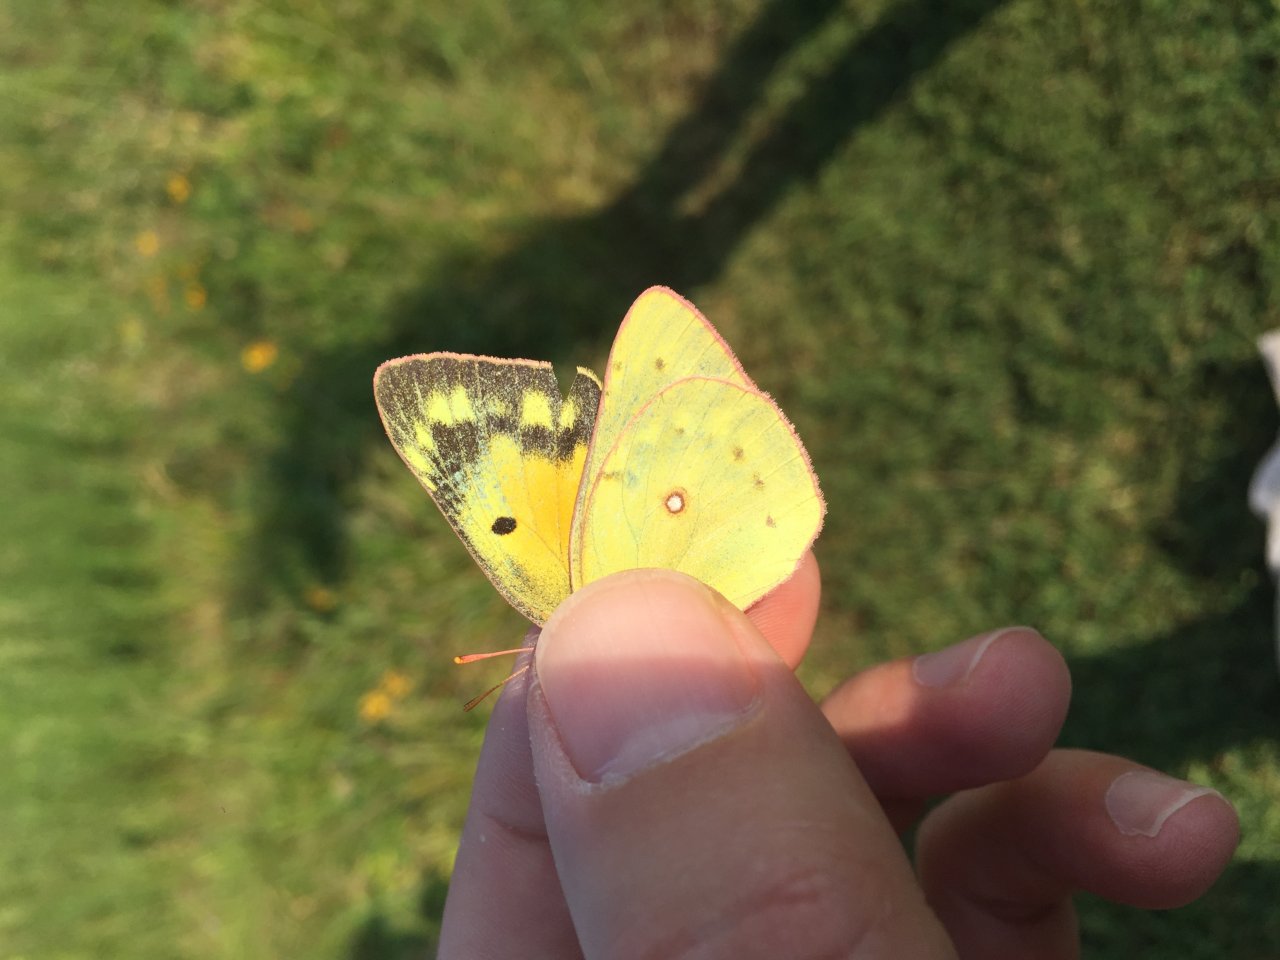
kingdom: Animalia
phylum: Arthropoda
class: Insecta
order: Lepidoptera
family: Pieridae
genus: Colias
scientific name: Colias eurytheme
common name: Orange Sulphur
